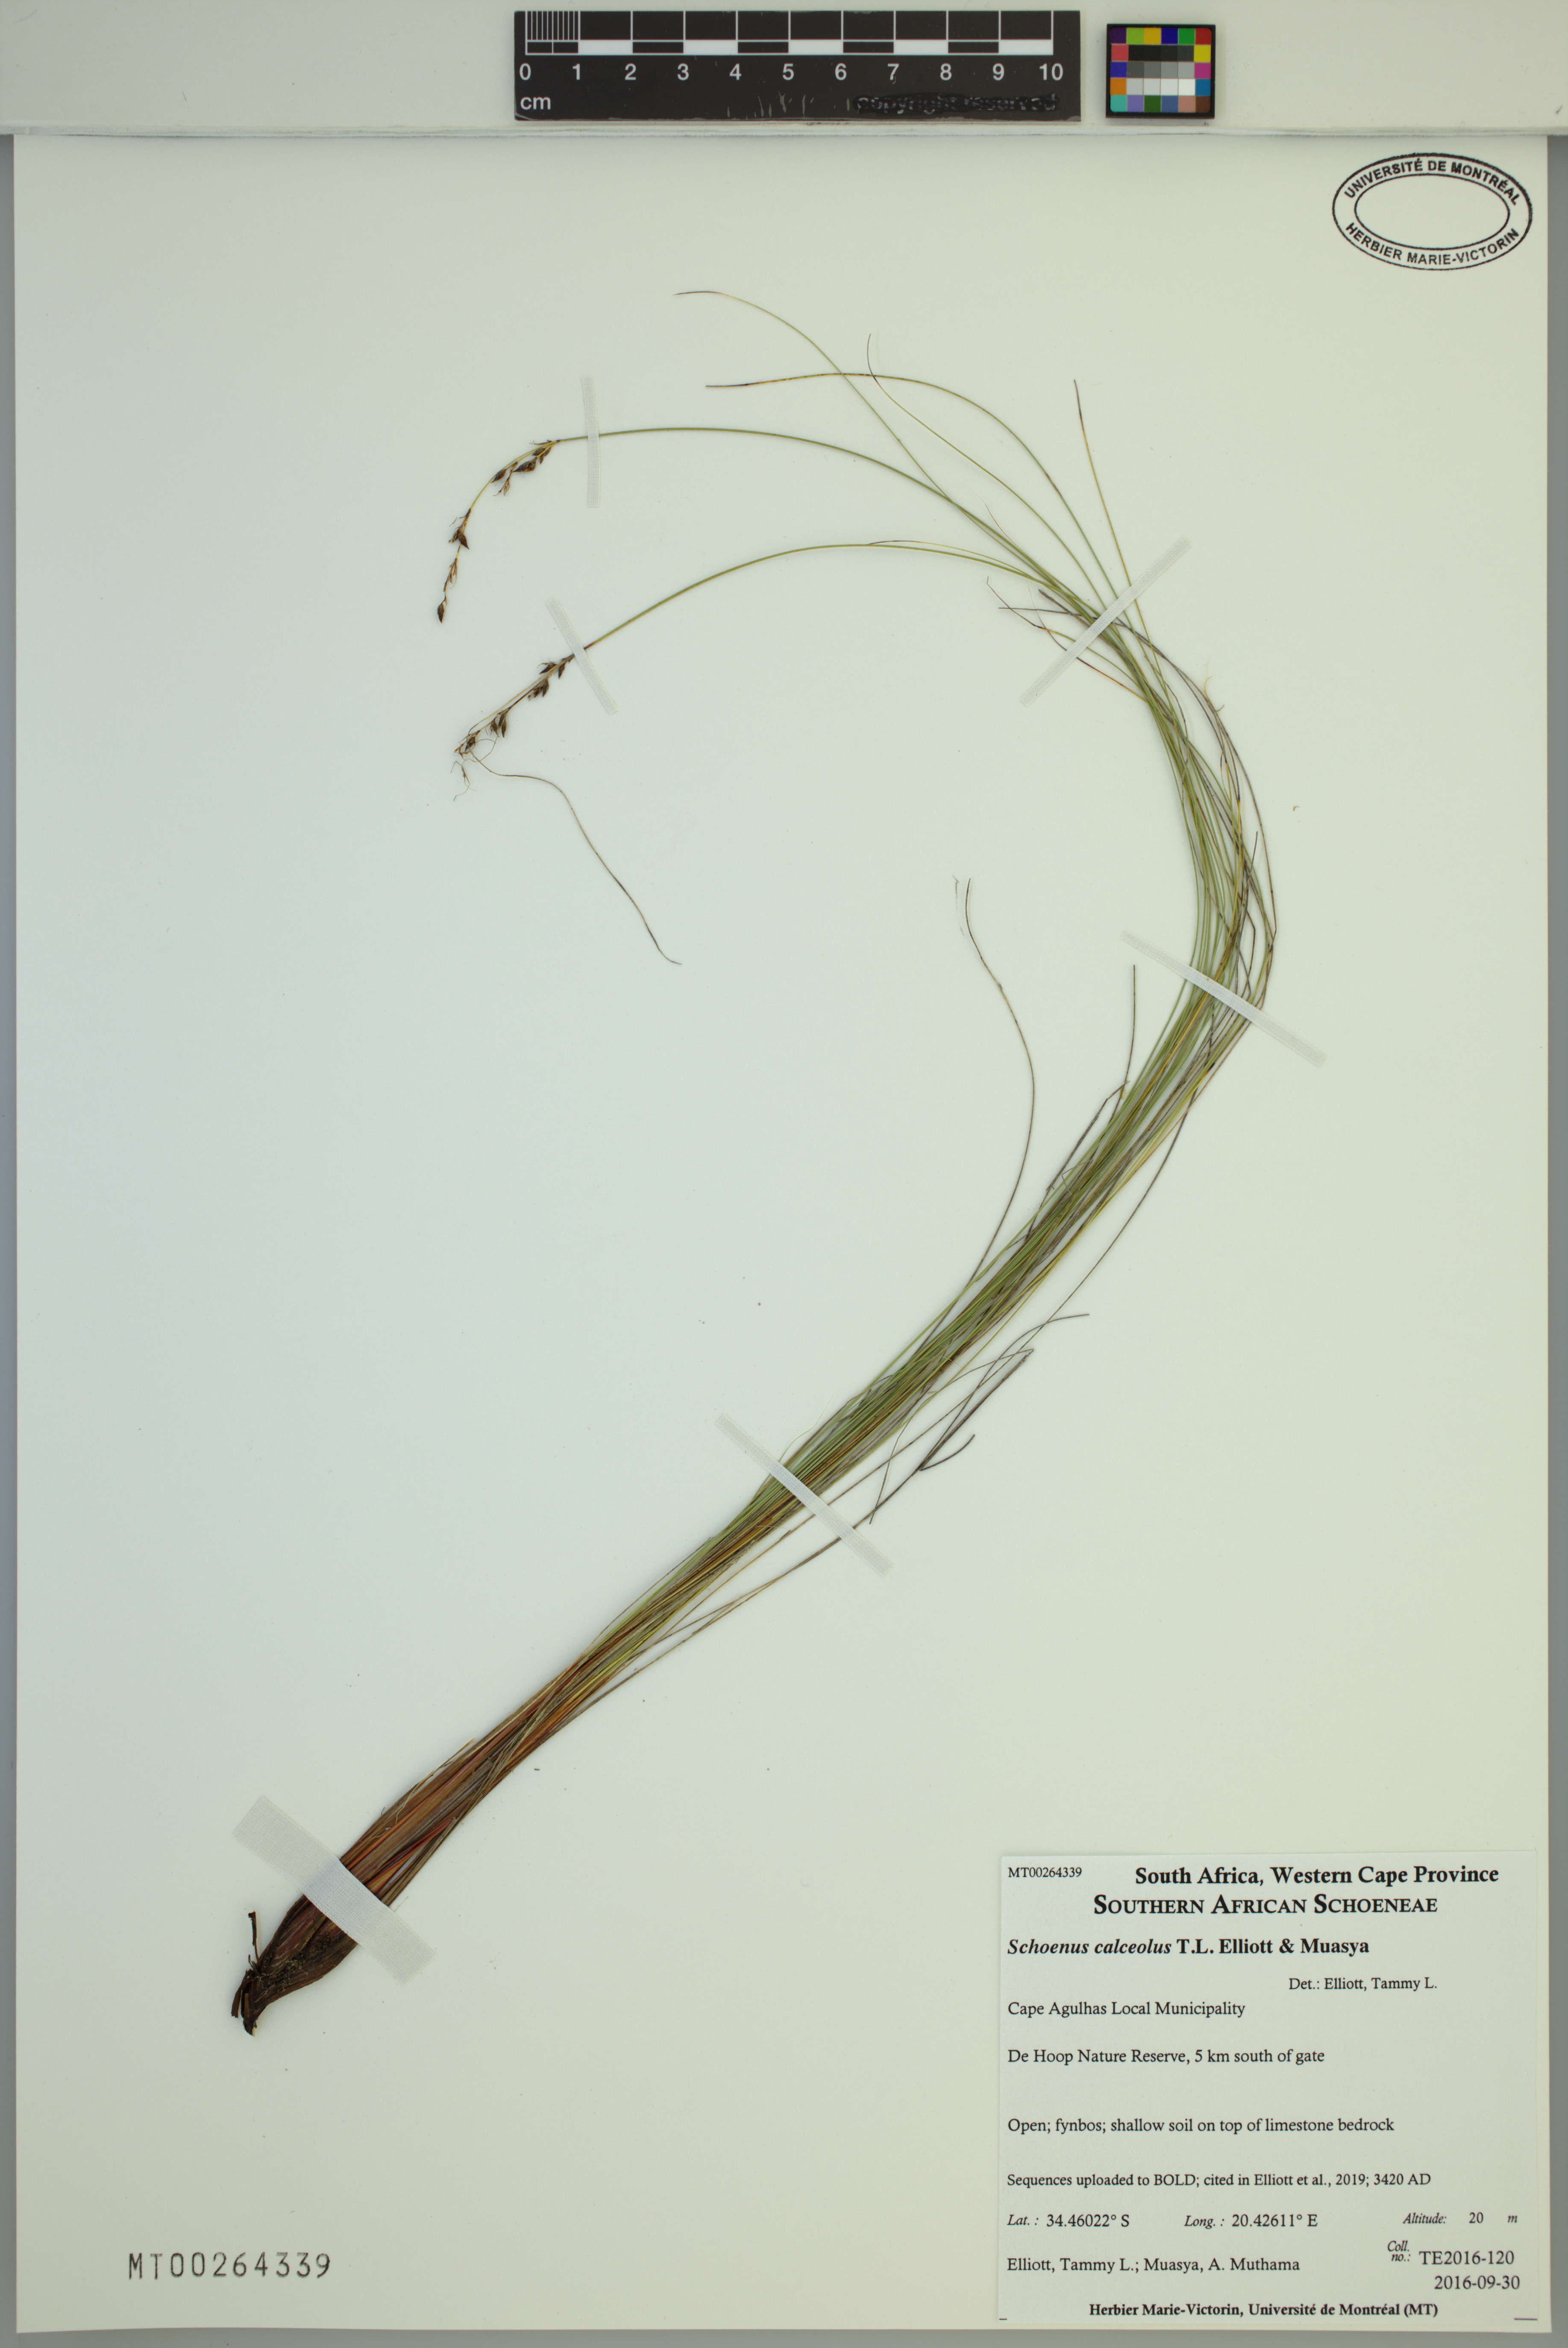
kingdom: Plantae
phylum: Tracheophyta
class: Liliopsida
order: Poales
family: Cyperaceae
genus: Schoenus
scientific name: Schoenus calceolus
